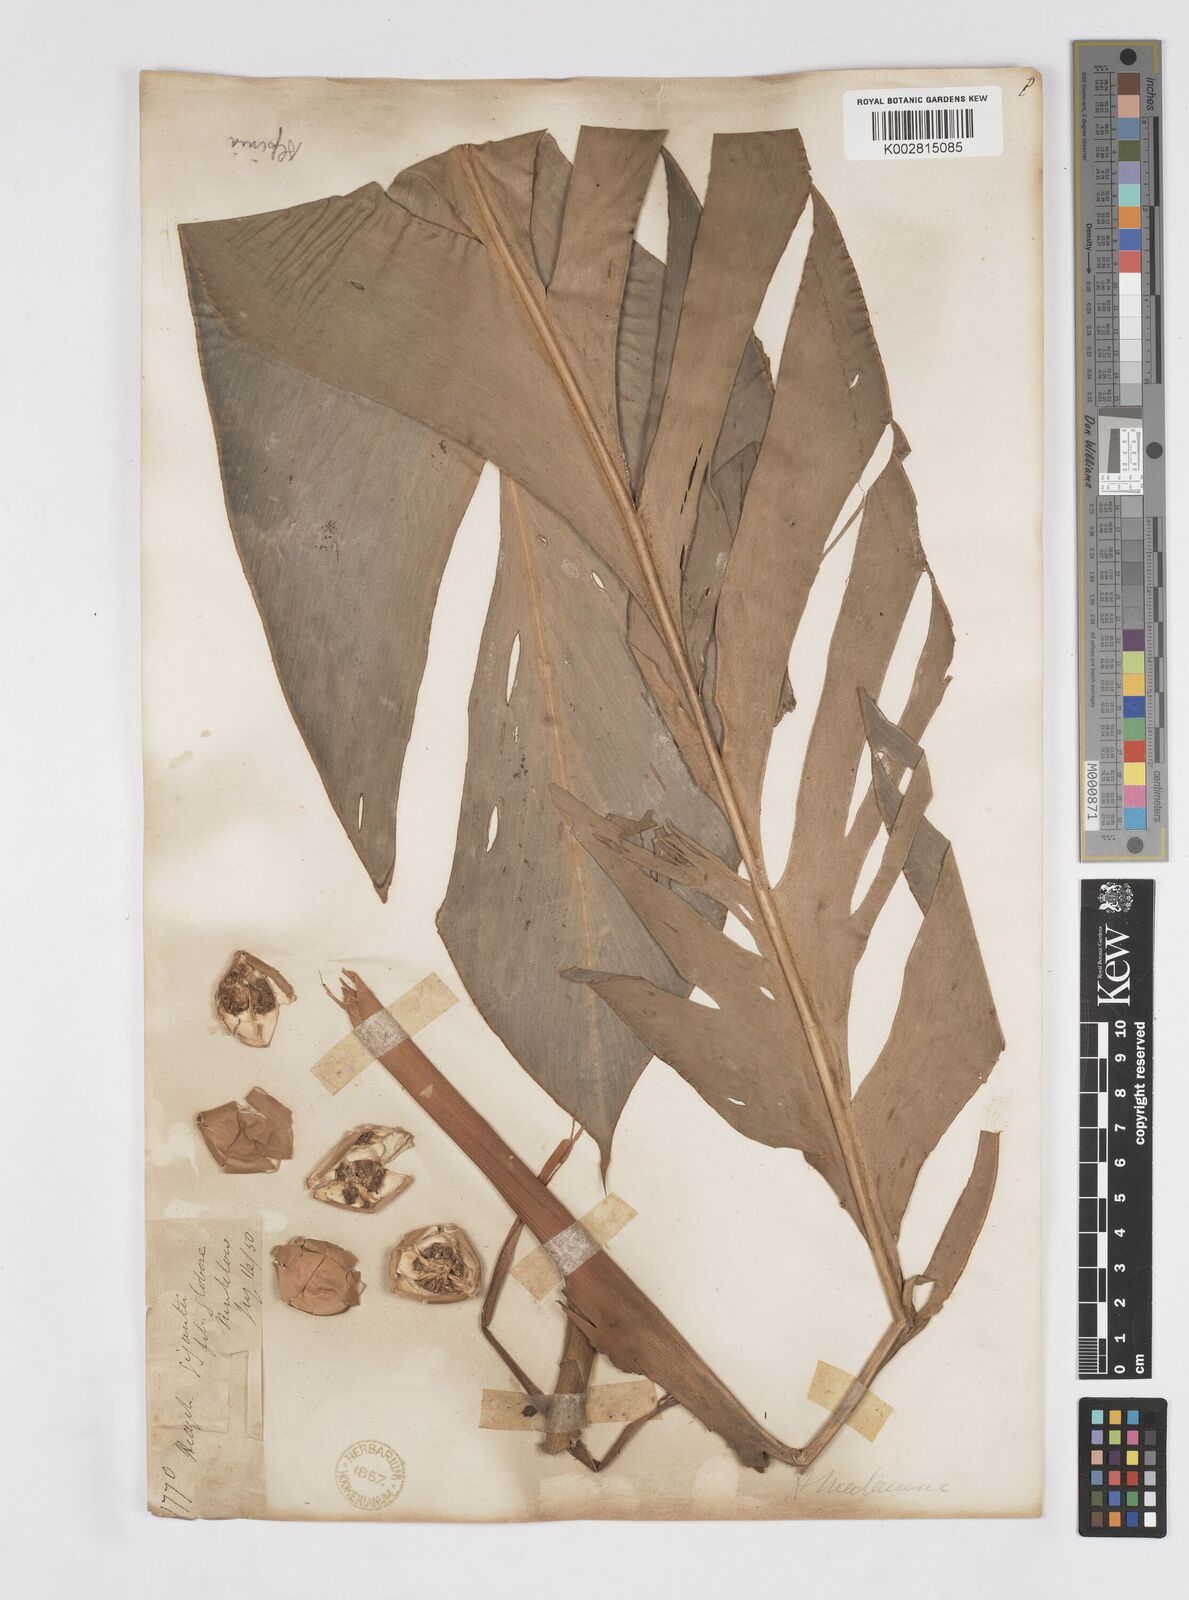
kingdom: Plantae
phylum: Tracheophyta
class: Liliopsida
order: Zingiberales
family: Zingiberaceae
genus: Alpinia
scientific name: Alpinia malaccensis
